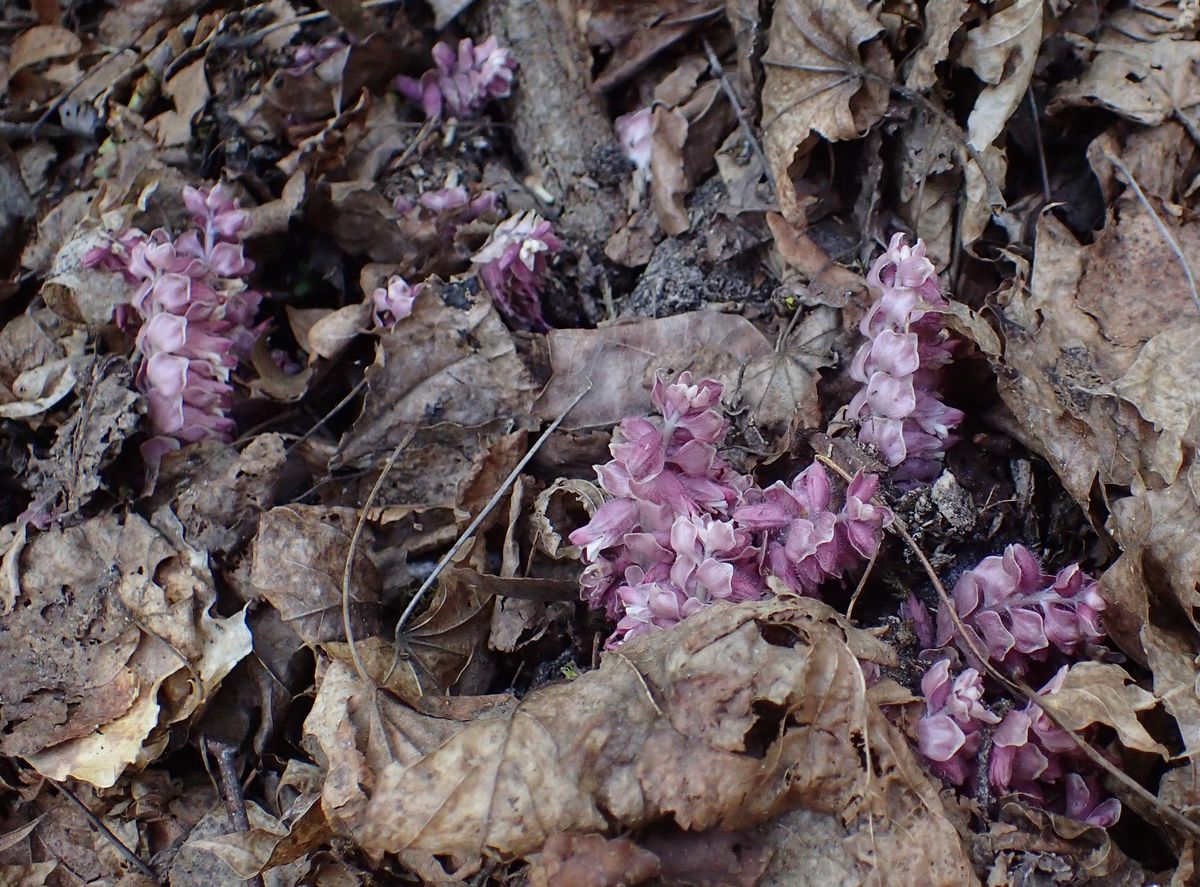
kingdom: Plantae
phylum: Tracheophyta
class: Magnoliopsida
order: Lamiales
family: Orobanchaceae
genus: Lathraea
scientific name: Lathraea squamaria
